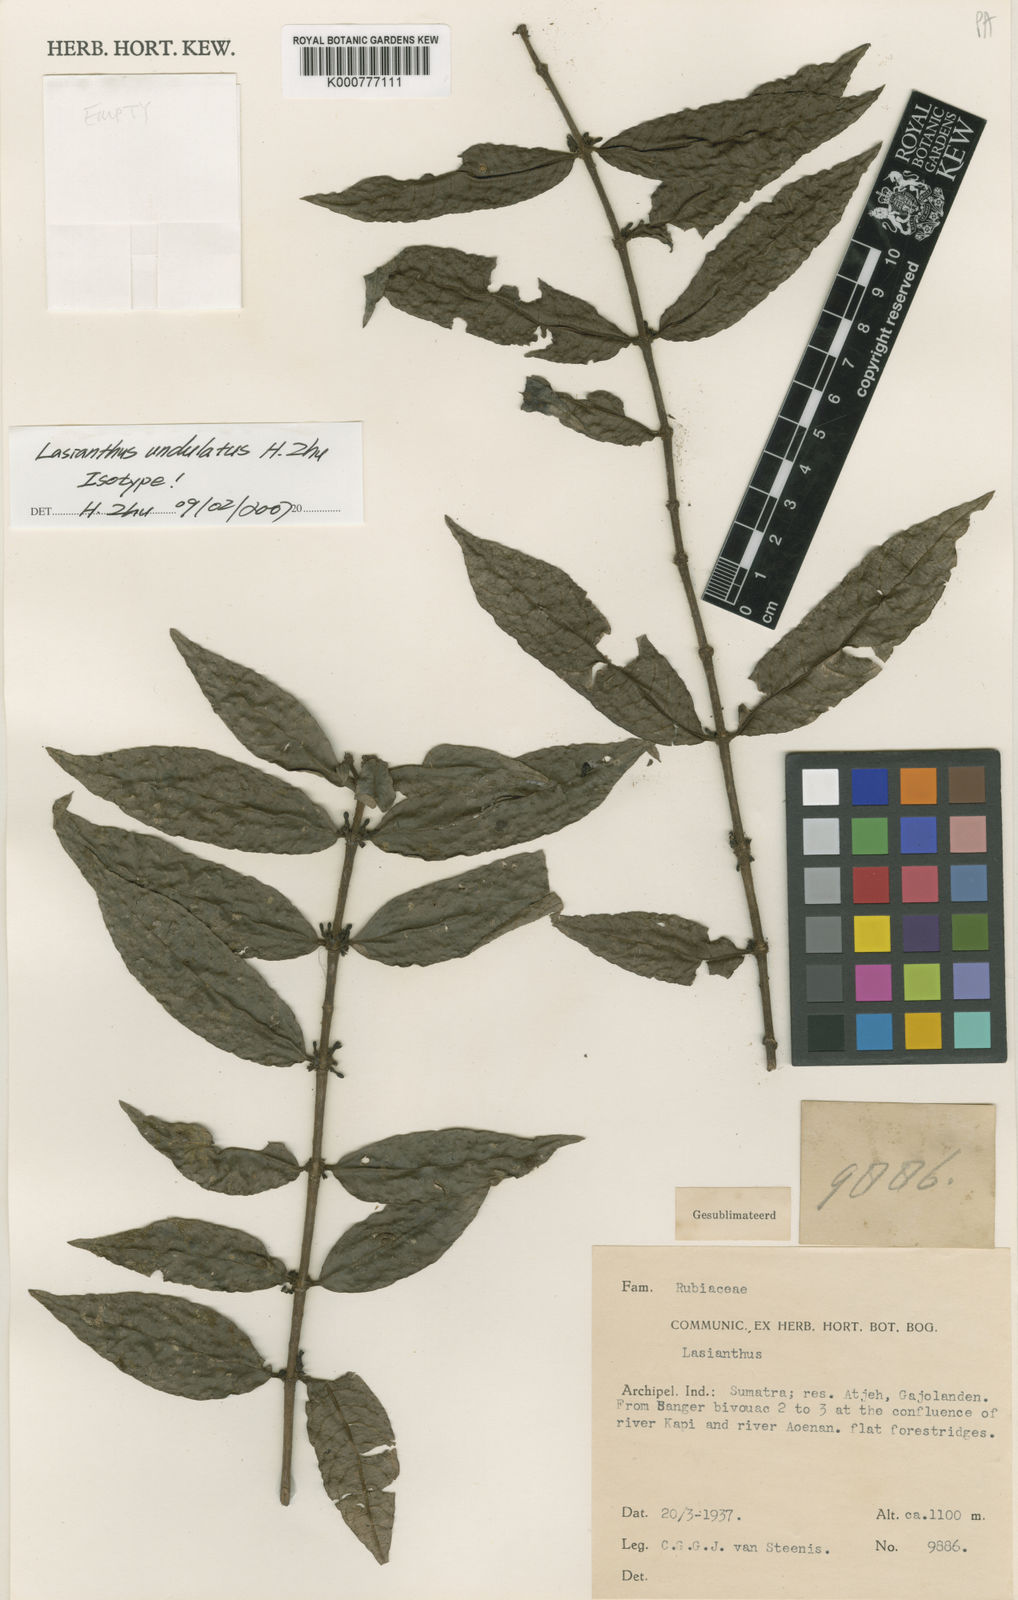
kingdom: Plantae
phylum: Tracheophyta
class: Magnoliopsida
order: Gentianales
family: Rubiaceae
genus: Lasianthus
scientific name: Lasianthus undulatus
